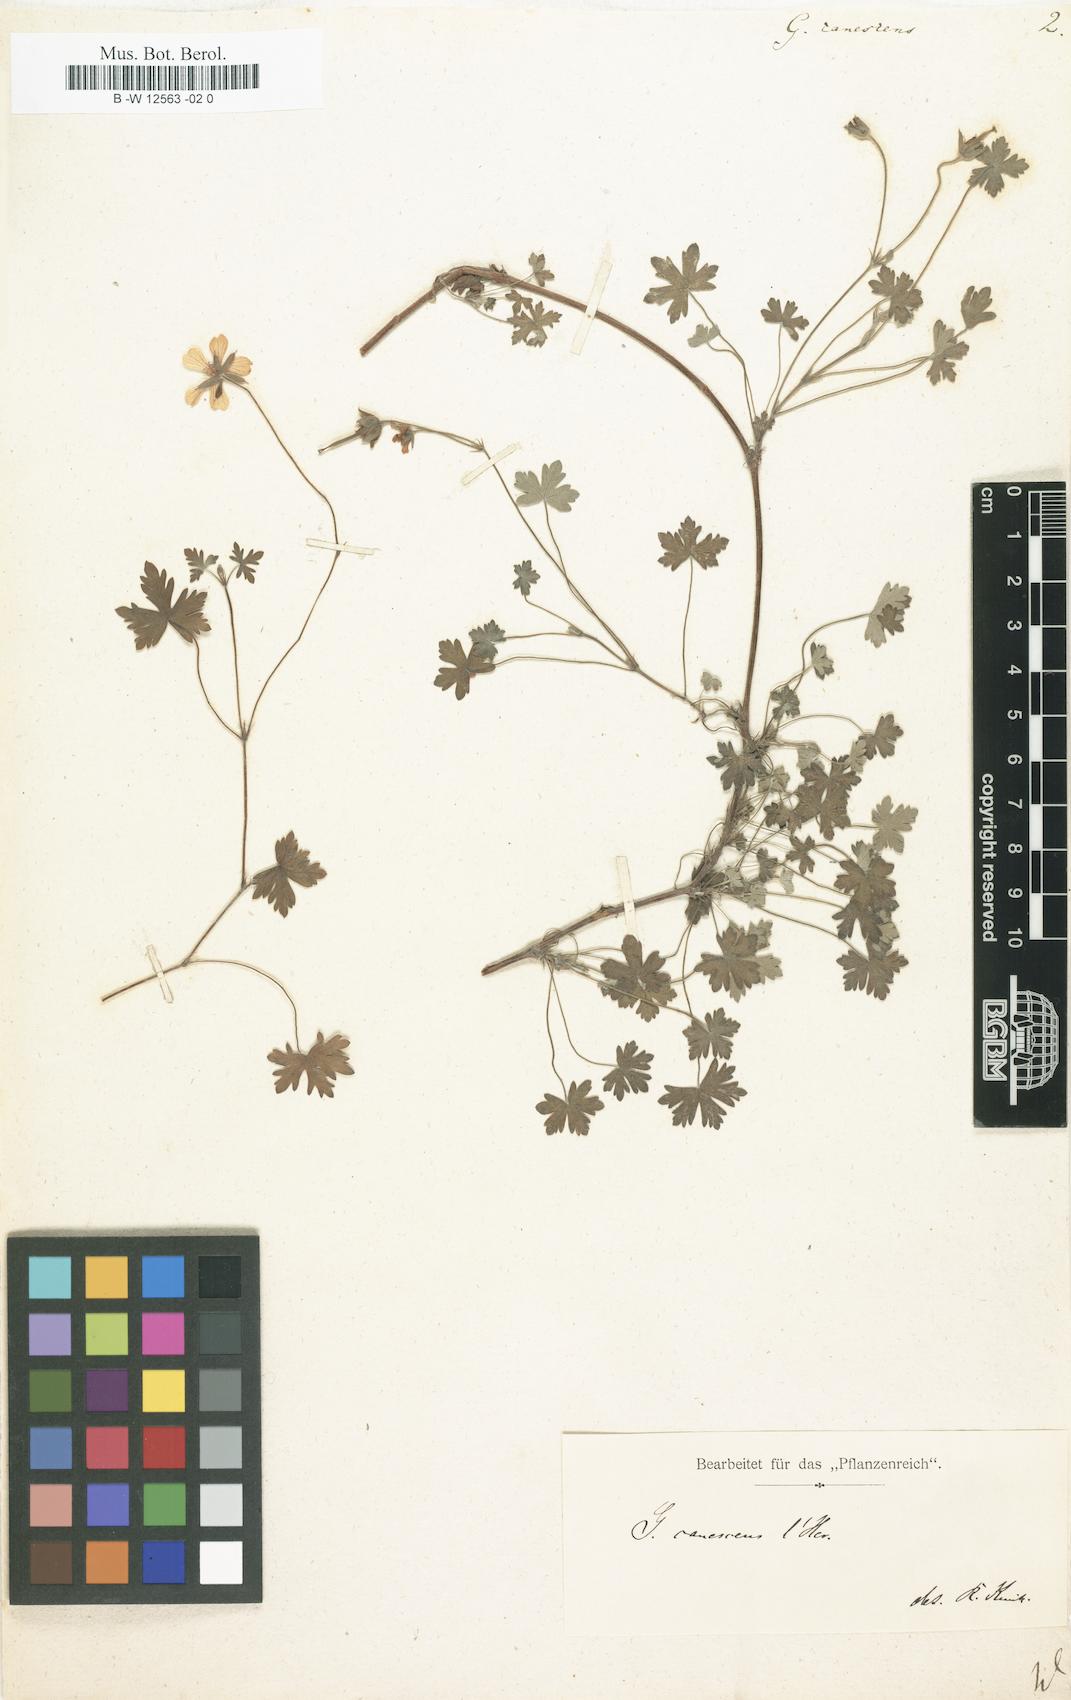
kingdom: Plantae
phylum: Tracheophyta
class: Magnoliopsida
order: Geraniales
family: Geraniaceae
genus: Geranium
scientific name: Geranium canescens
